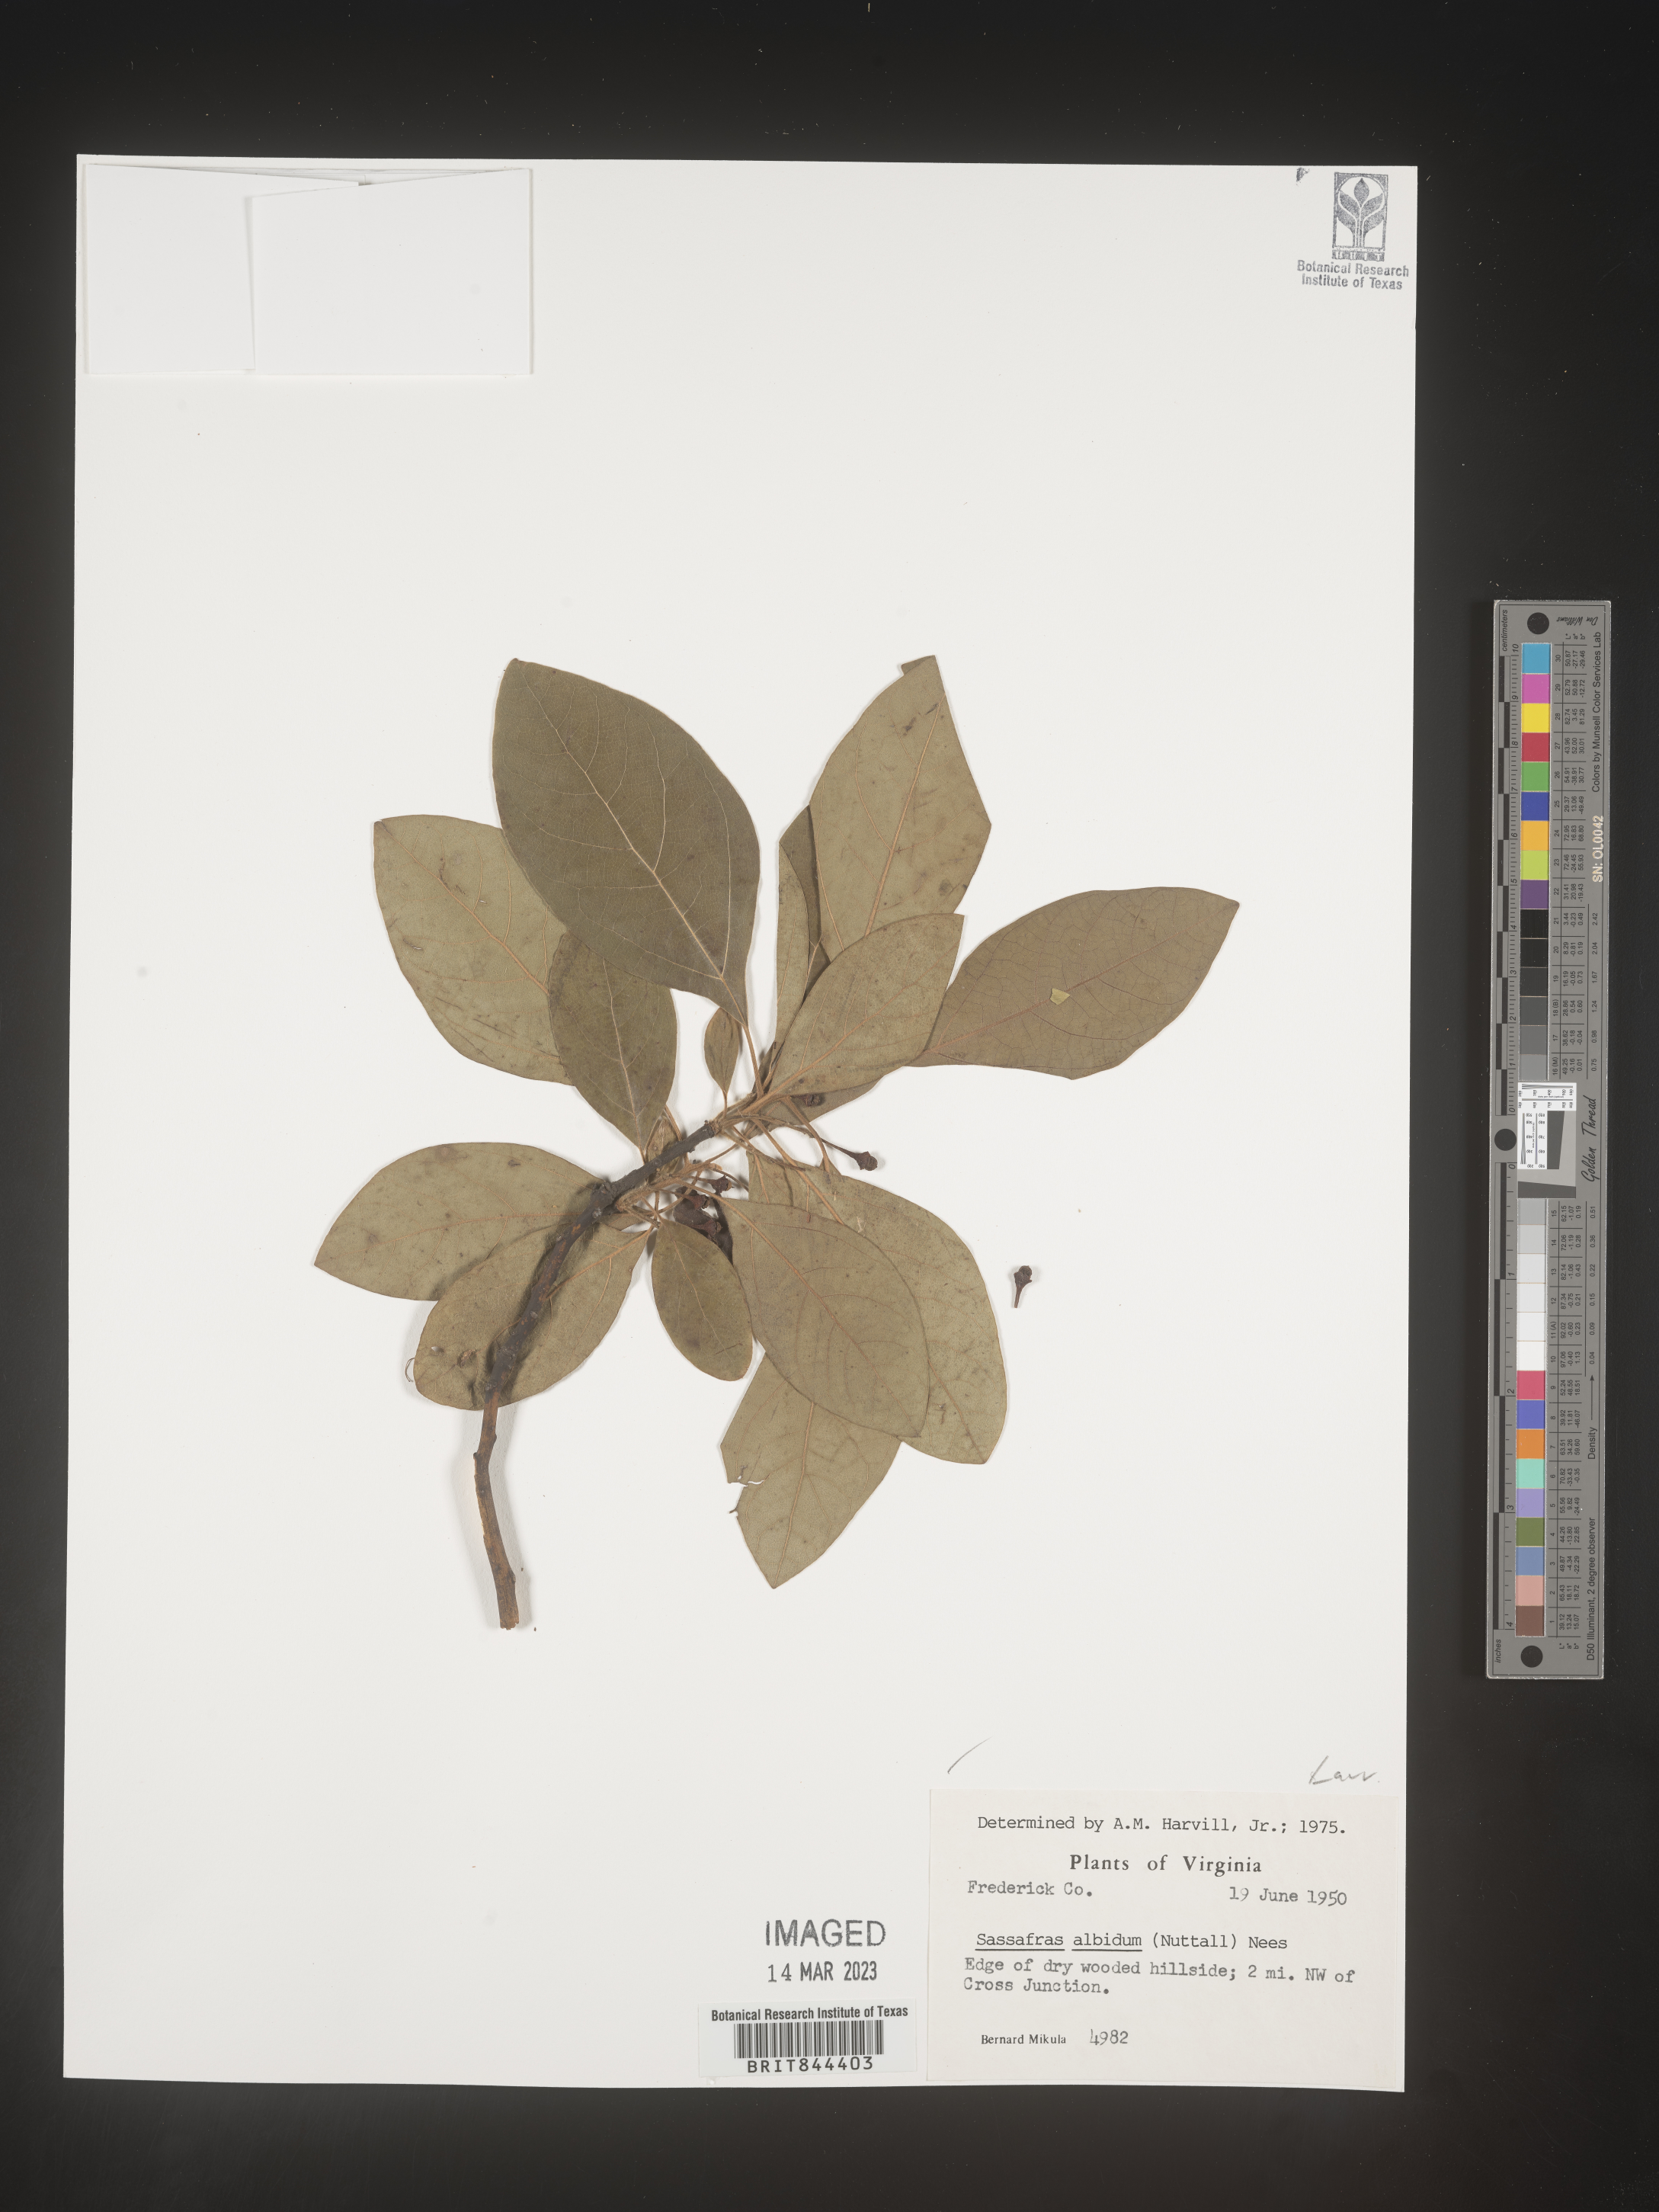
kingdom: Plantae
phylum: Tracheophyta
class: Magnoliopsida
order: Laurales
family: Lauraceae
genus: Sassafras
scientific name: Sassafras albidum
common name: Sassafras
